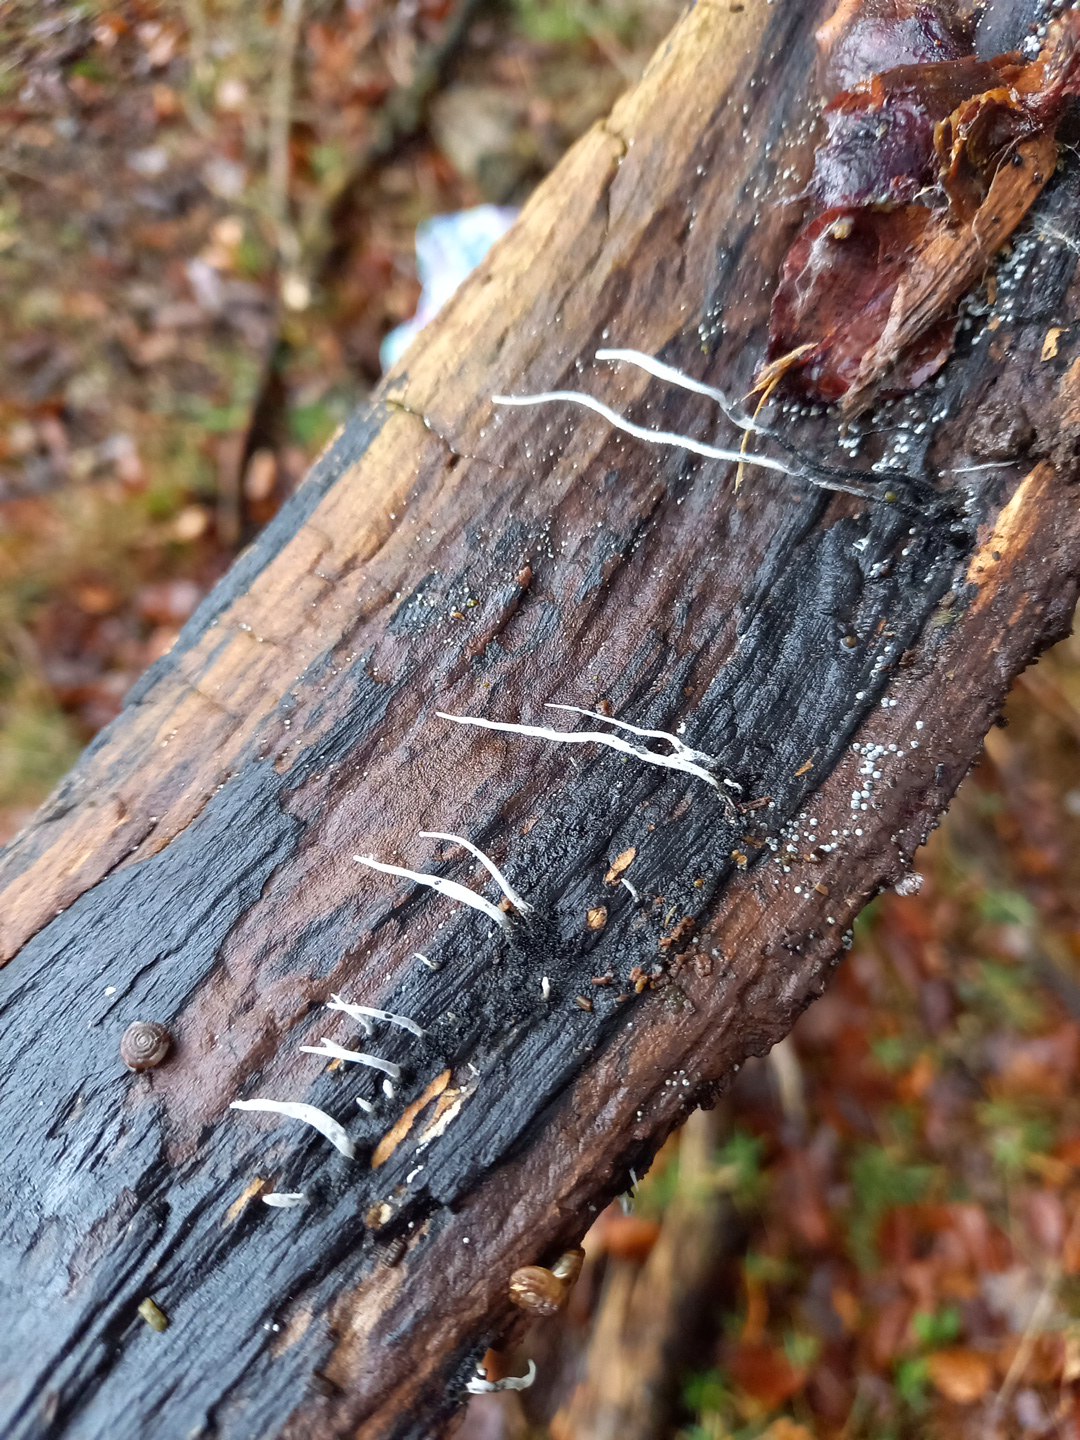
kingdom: Fungi
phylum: Ascomycota
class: Sordariomycetes
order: Xylariales
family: Xylariaceae
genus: Xylaria
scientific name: Xylaria hypoxylon
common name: grenet stødsvamp
